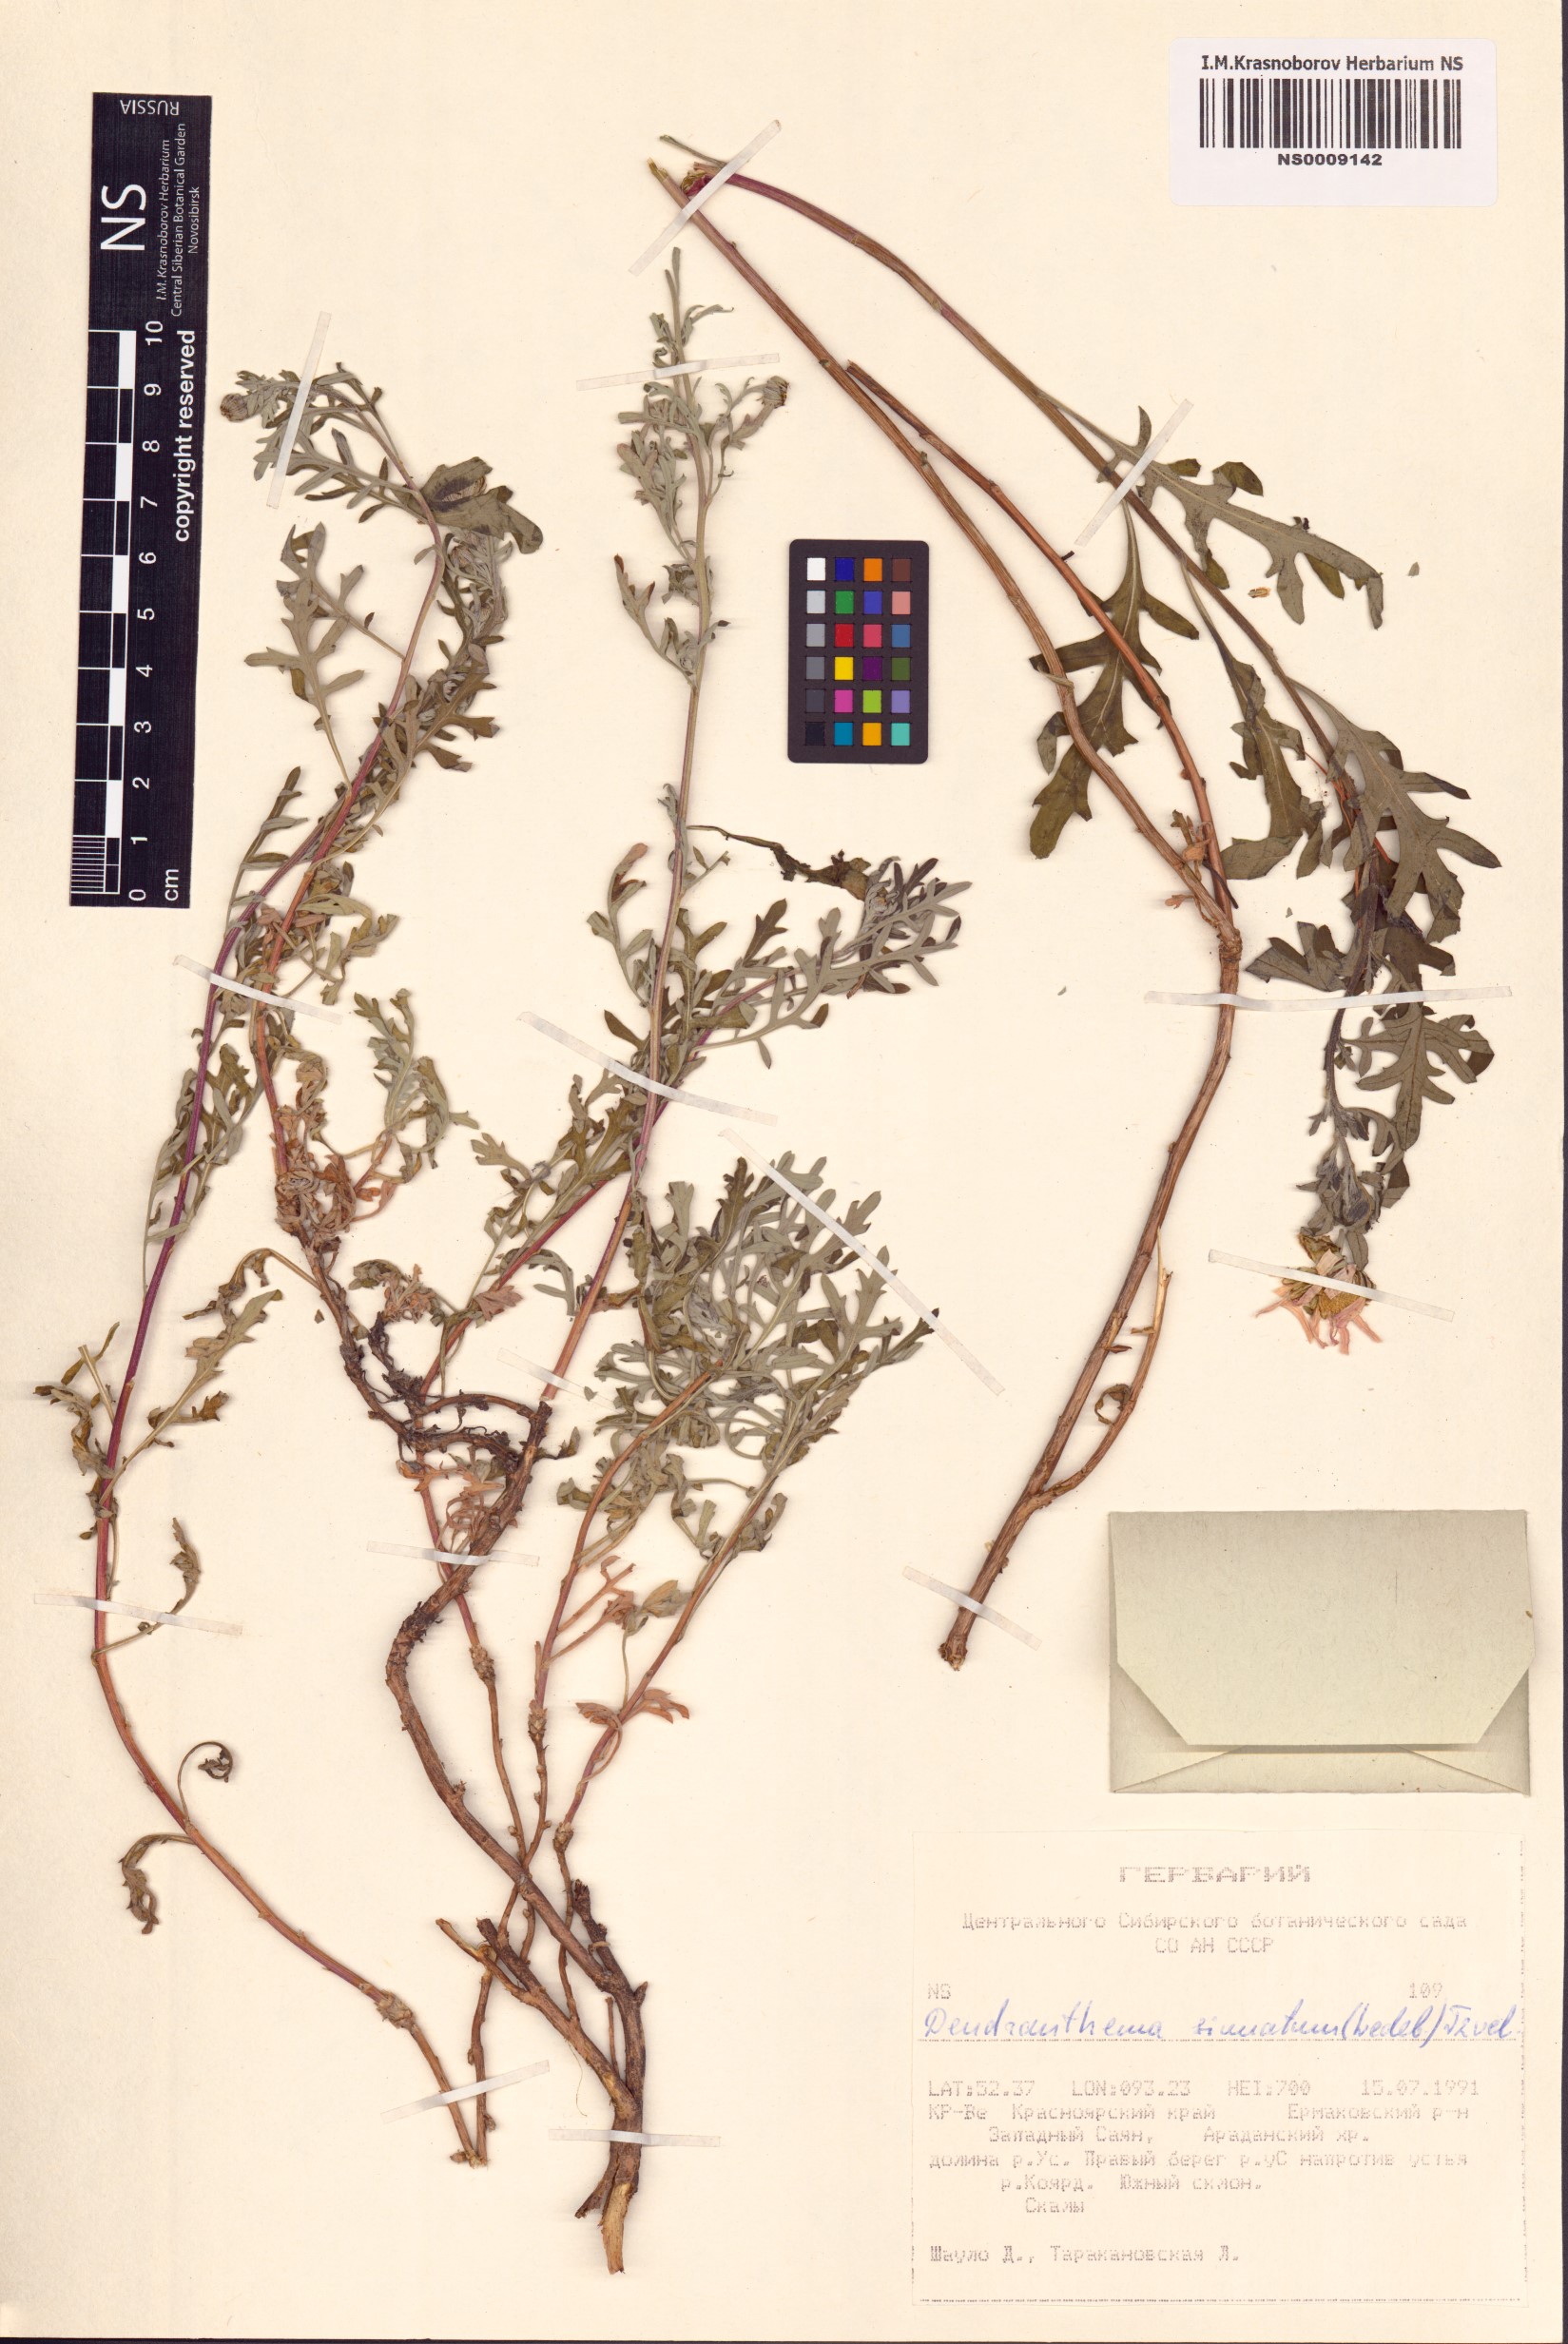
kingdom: Plantae
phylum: Tracheophyta
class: Magnoliopsida
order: Asterales
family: Asteraceae
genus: Chrysanthemum
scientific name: Chrysanthemum sinuatum
